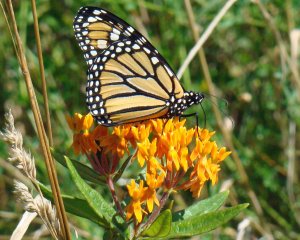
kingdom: Animalia
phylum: Arthropoda
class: Insecta
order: Lepidoptera
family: Nymphalidae
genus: Danaus
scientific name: Danaus plexippus
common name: Monarch
